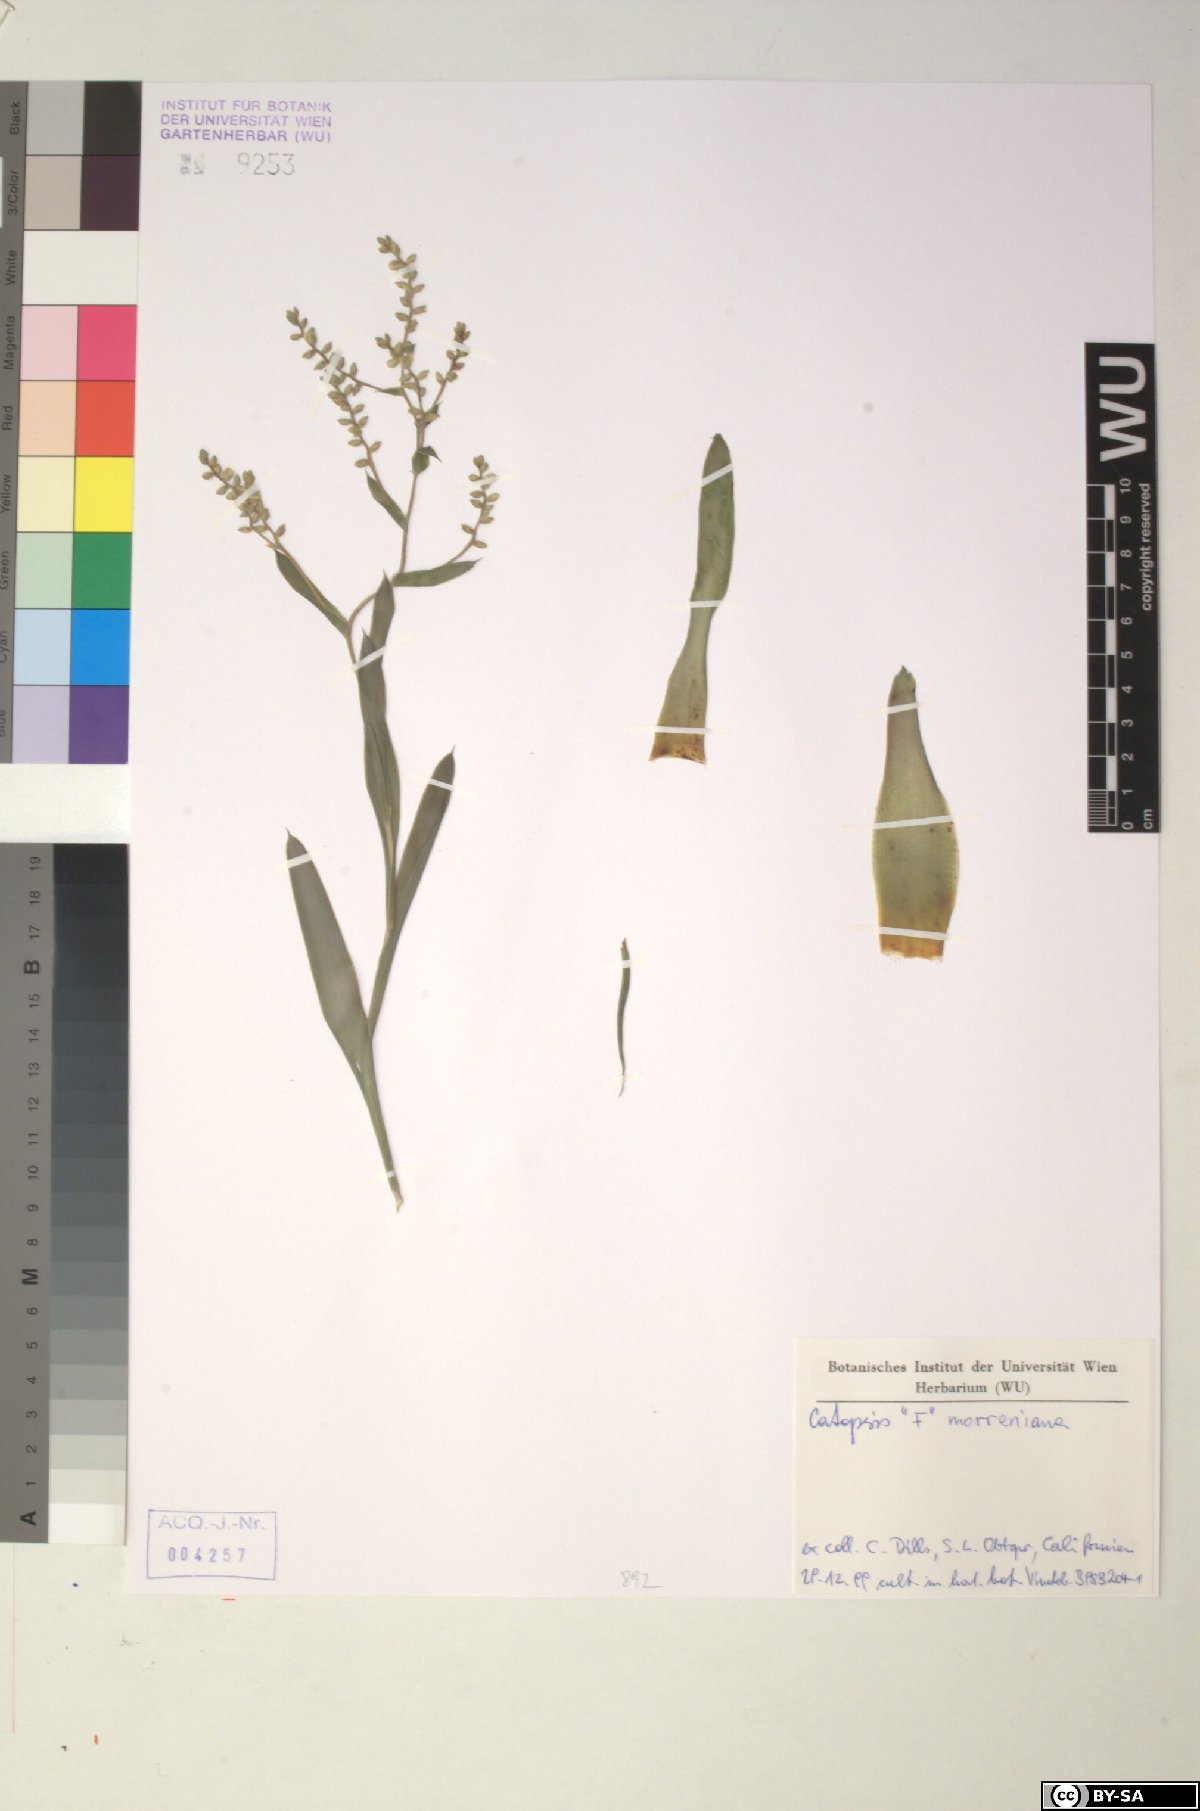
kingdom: Plantae
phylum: Tracheophyta
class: Liliopsida
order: Poales
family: Bromeliaceae
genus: Catopsis
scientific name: Catopsis morreniana
